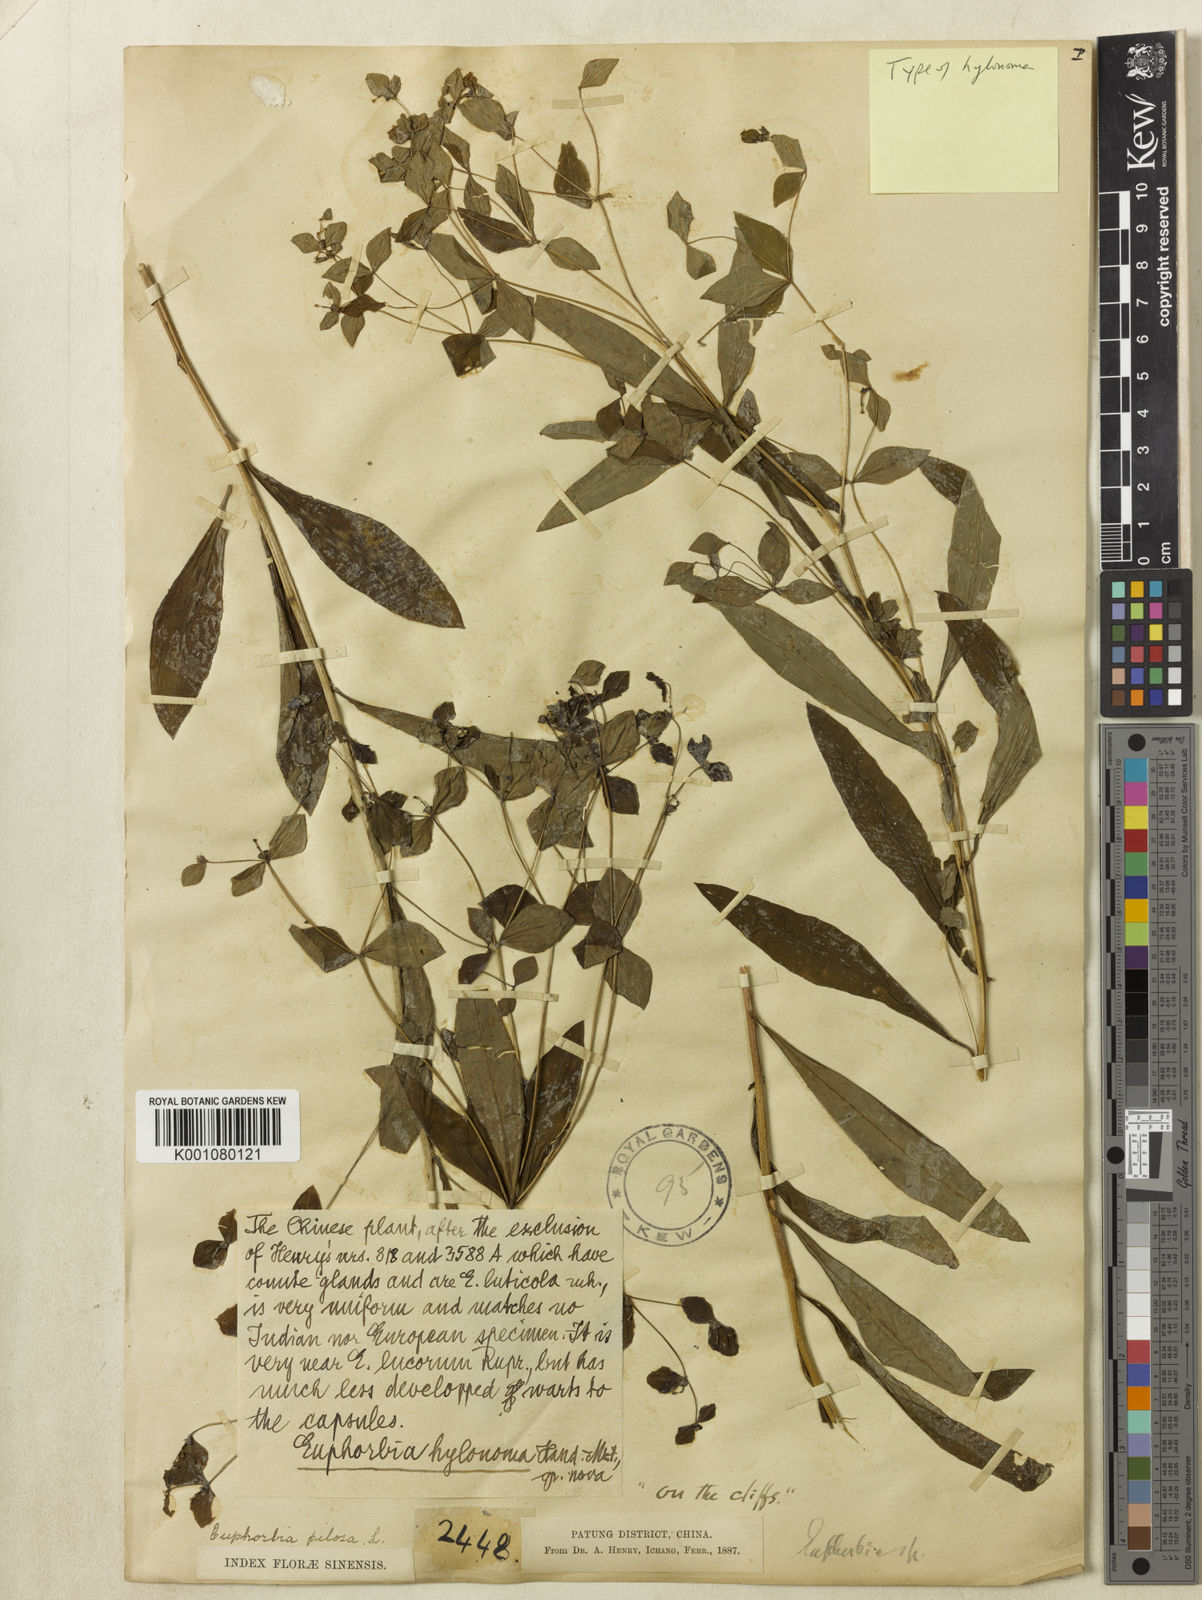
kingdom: Plantae
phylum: Tracheophyta
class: Magnoliopsida
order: Malpighiales
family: Euphorbiaceae
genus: Euphorbia
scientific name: Euphorbia
